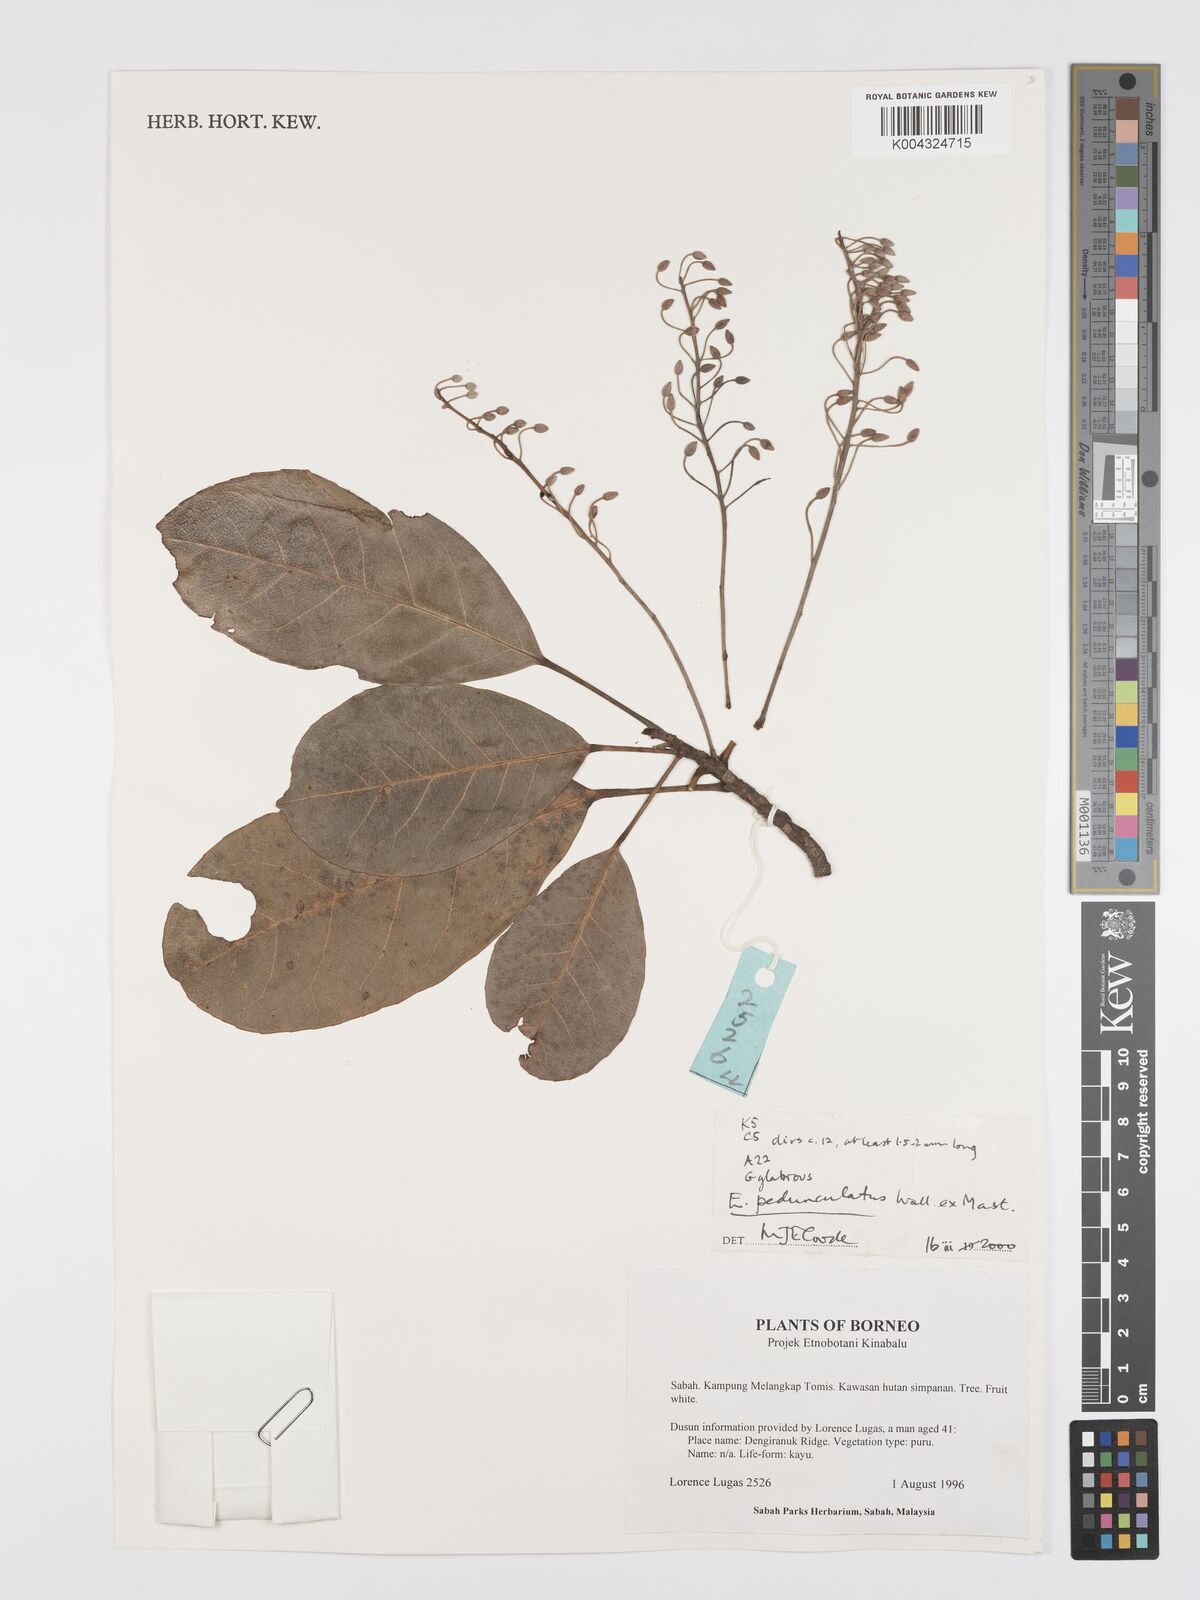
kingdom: Plantae
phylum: Tracheophyta
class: Magnoliopsida
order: Oxalidales
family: Elaeocarpaceae
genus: Elaeocarpus
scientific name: Elaeocarpus pedunculatus
